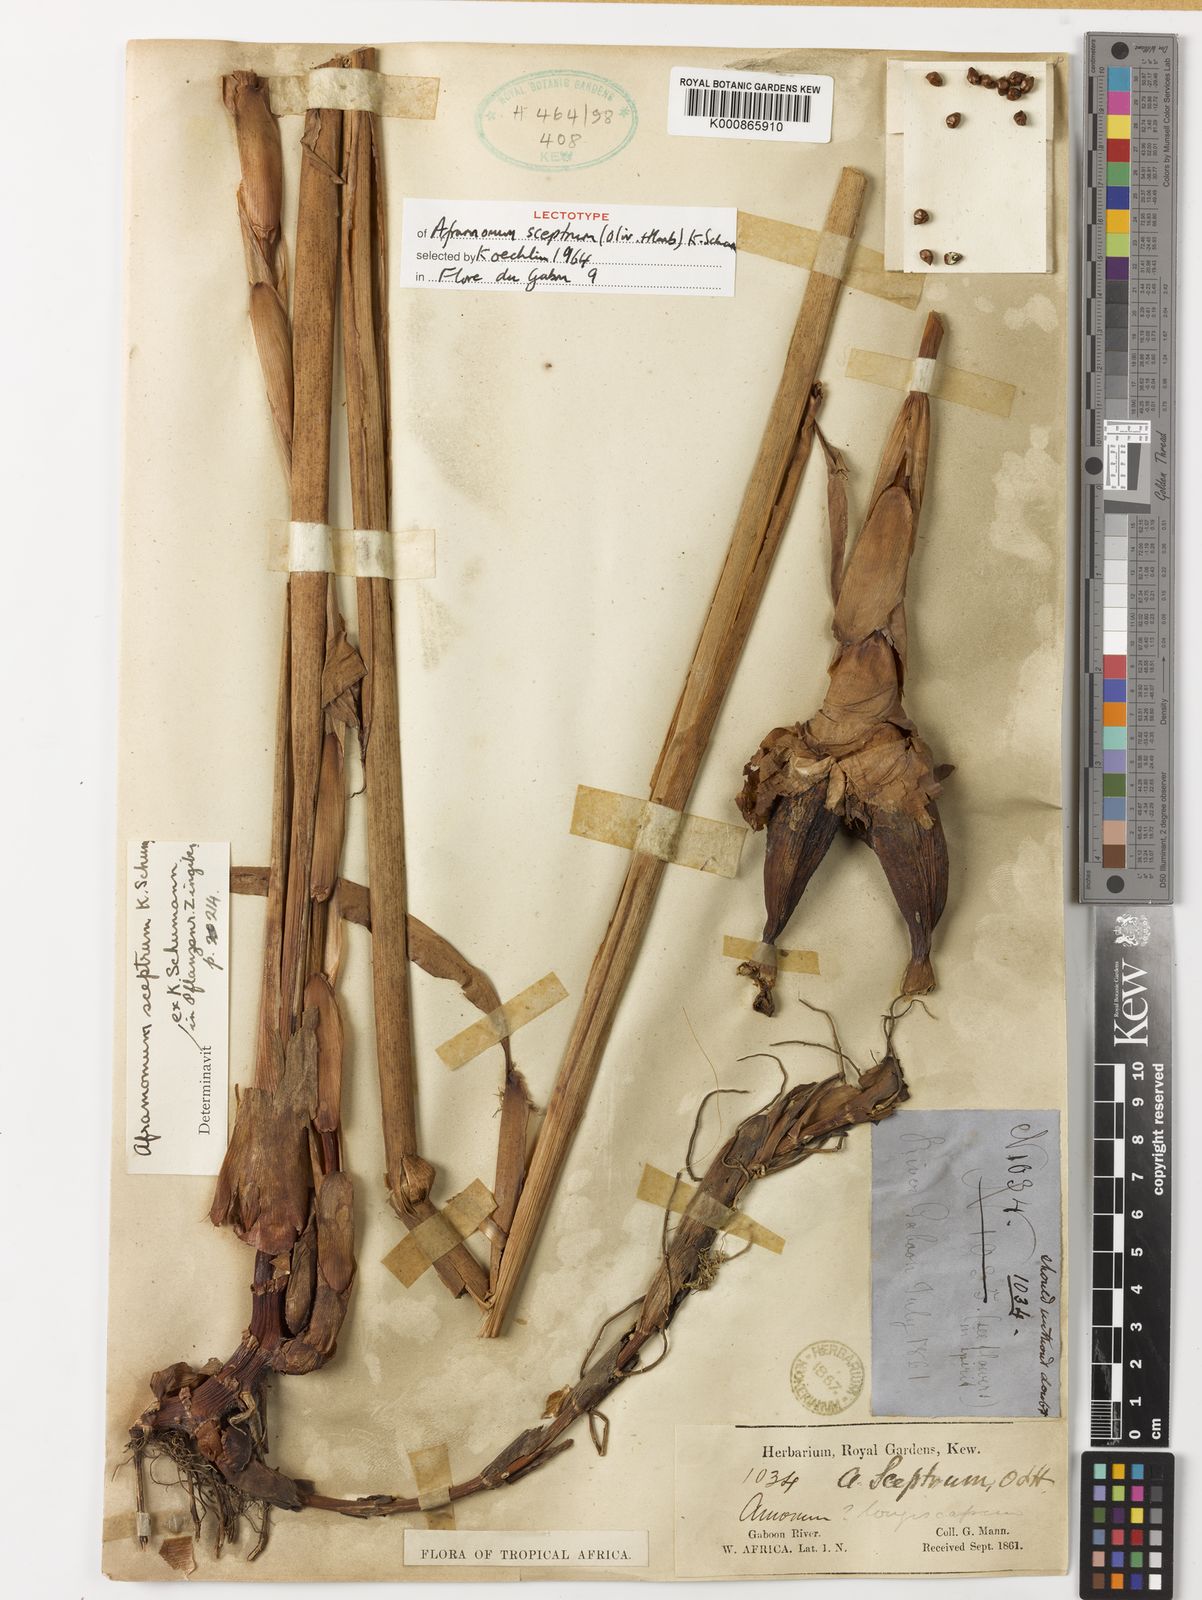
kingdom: Plantae
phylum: Tracheophyta
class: Liliopsida
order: Zingiberales
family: Zingiberaceae
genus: Aframomum
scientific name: Aframomum cereum
